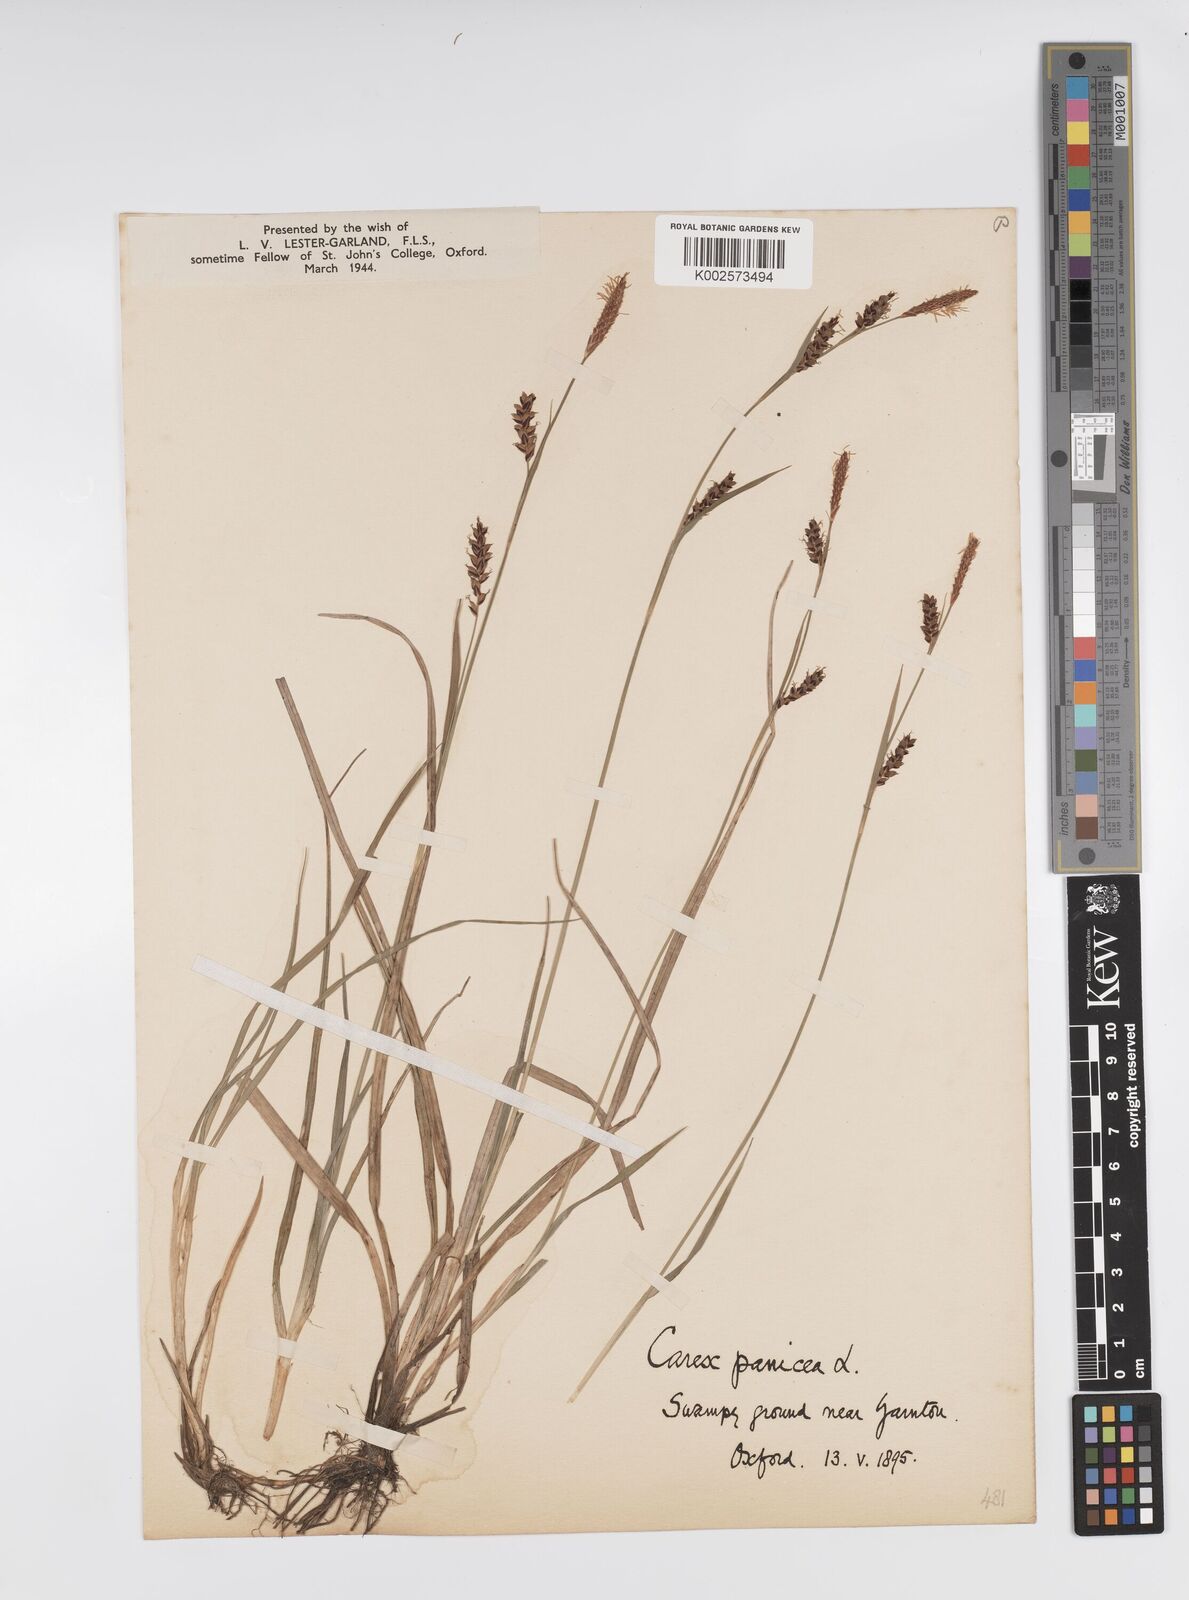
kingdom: Plantae
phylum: Tracheophyta
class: Liliopsida
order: Poales
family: Cyperaceae
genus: Carex
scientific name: Carex panicea
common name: Carnation sedge
